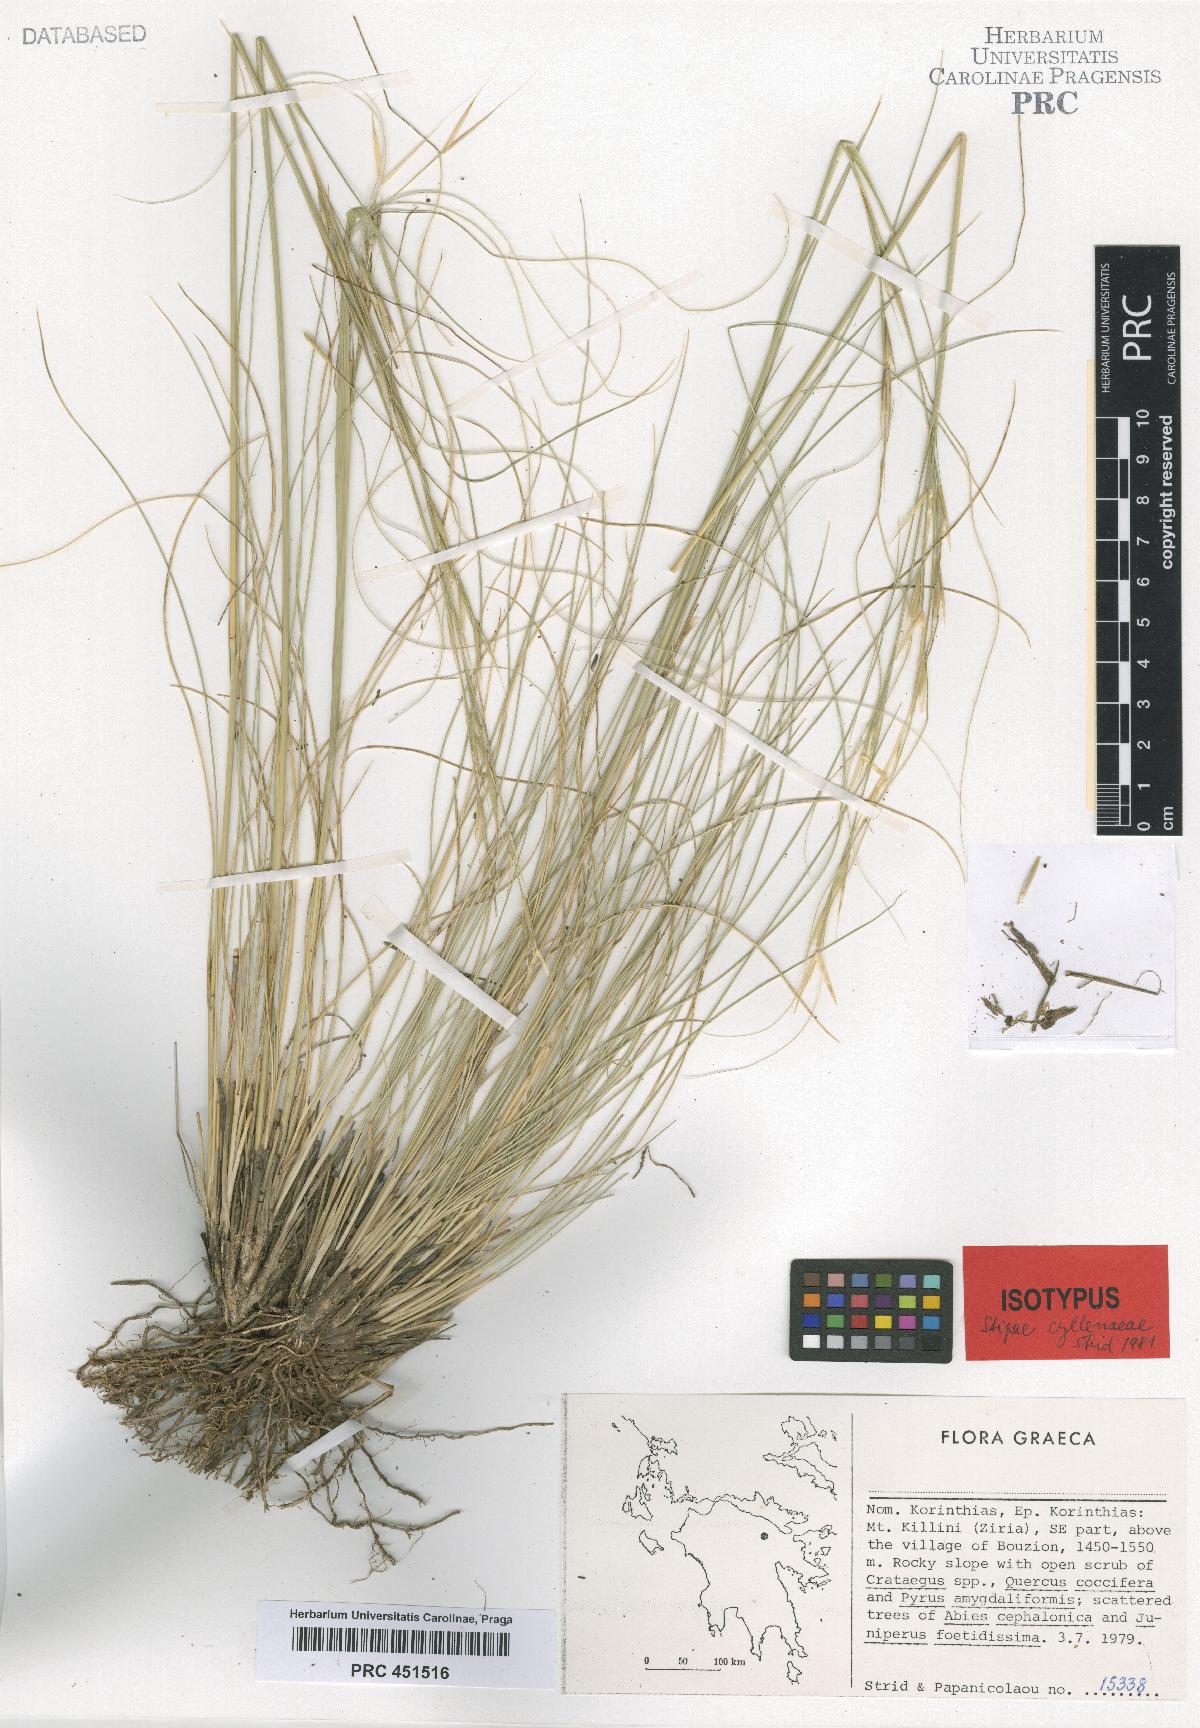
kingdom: Plantae
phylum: Tracheophyta
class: Liliopsida
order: Poales
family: Poaceae
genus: Stipa
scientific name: Stipa lessingiana
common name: Needle grass
